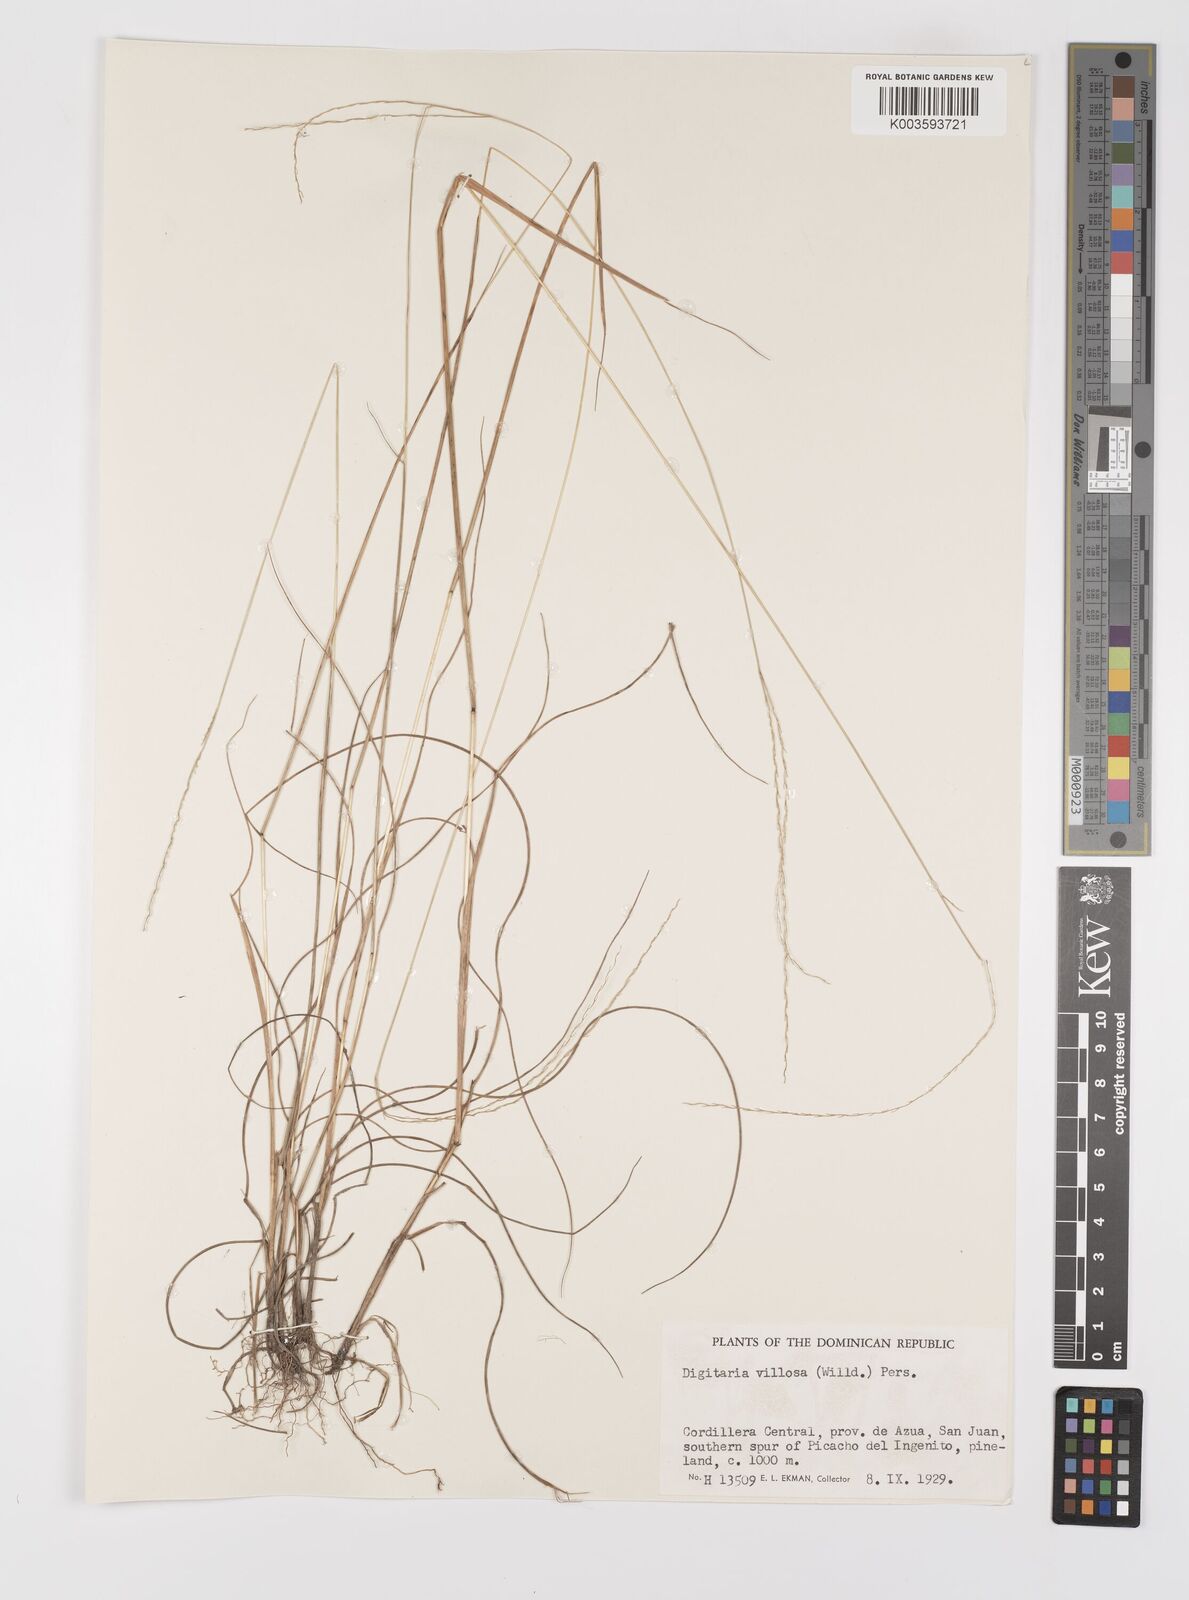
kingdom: Plantae
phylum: Tracheophyta
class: Liliopsida
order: Poales
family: Poaceae
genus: Digitaria
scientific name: Digitaria villosa
